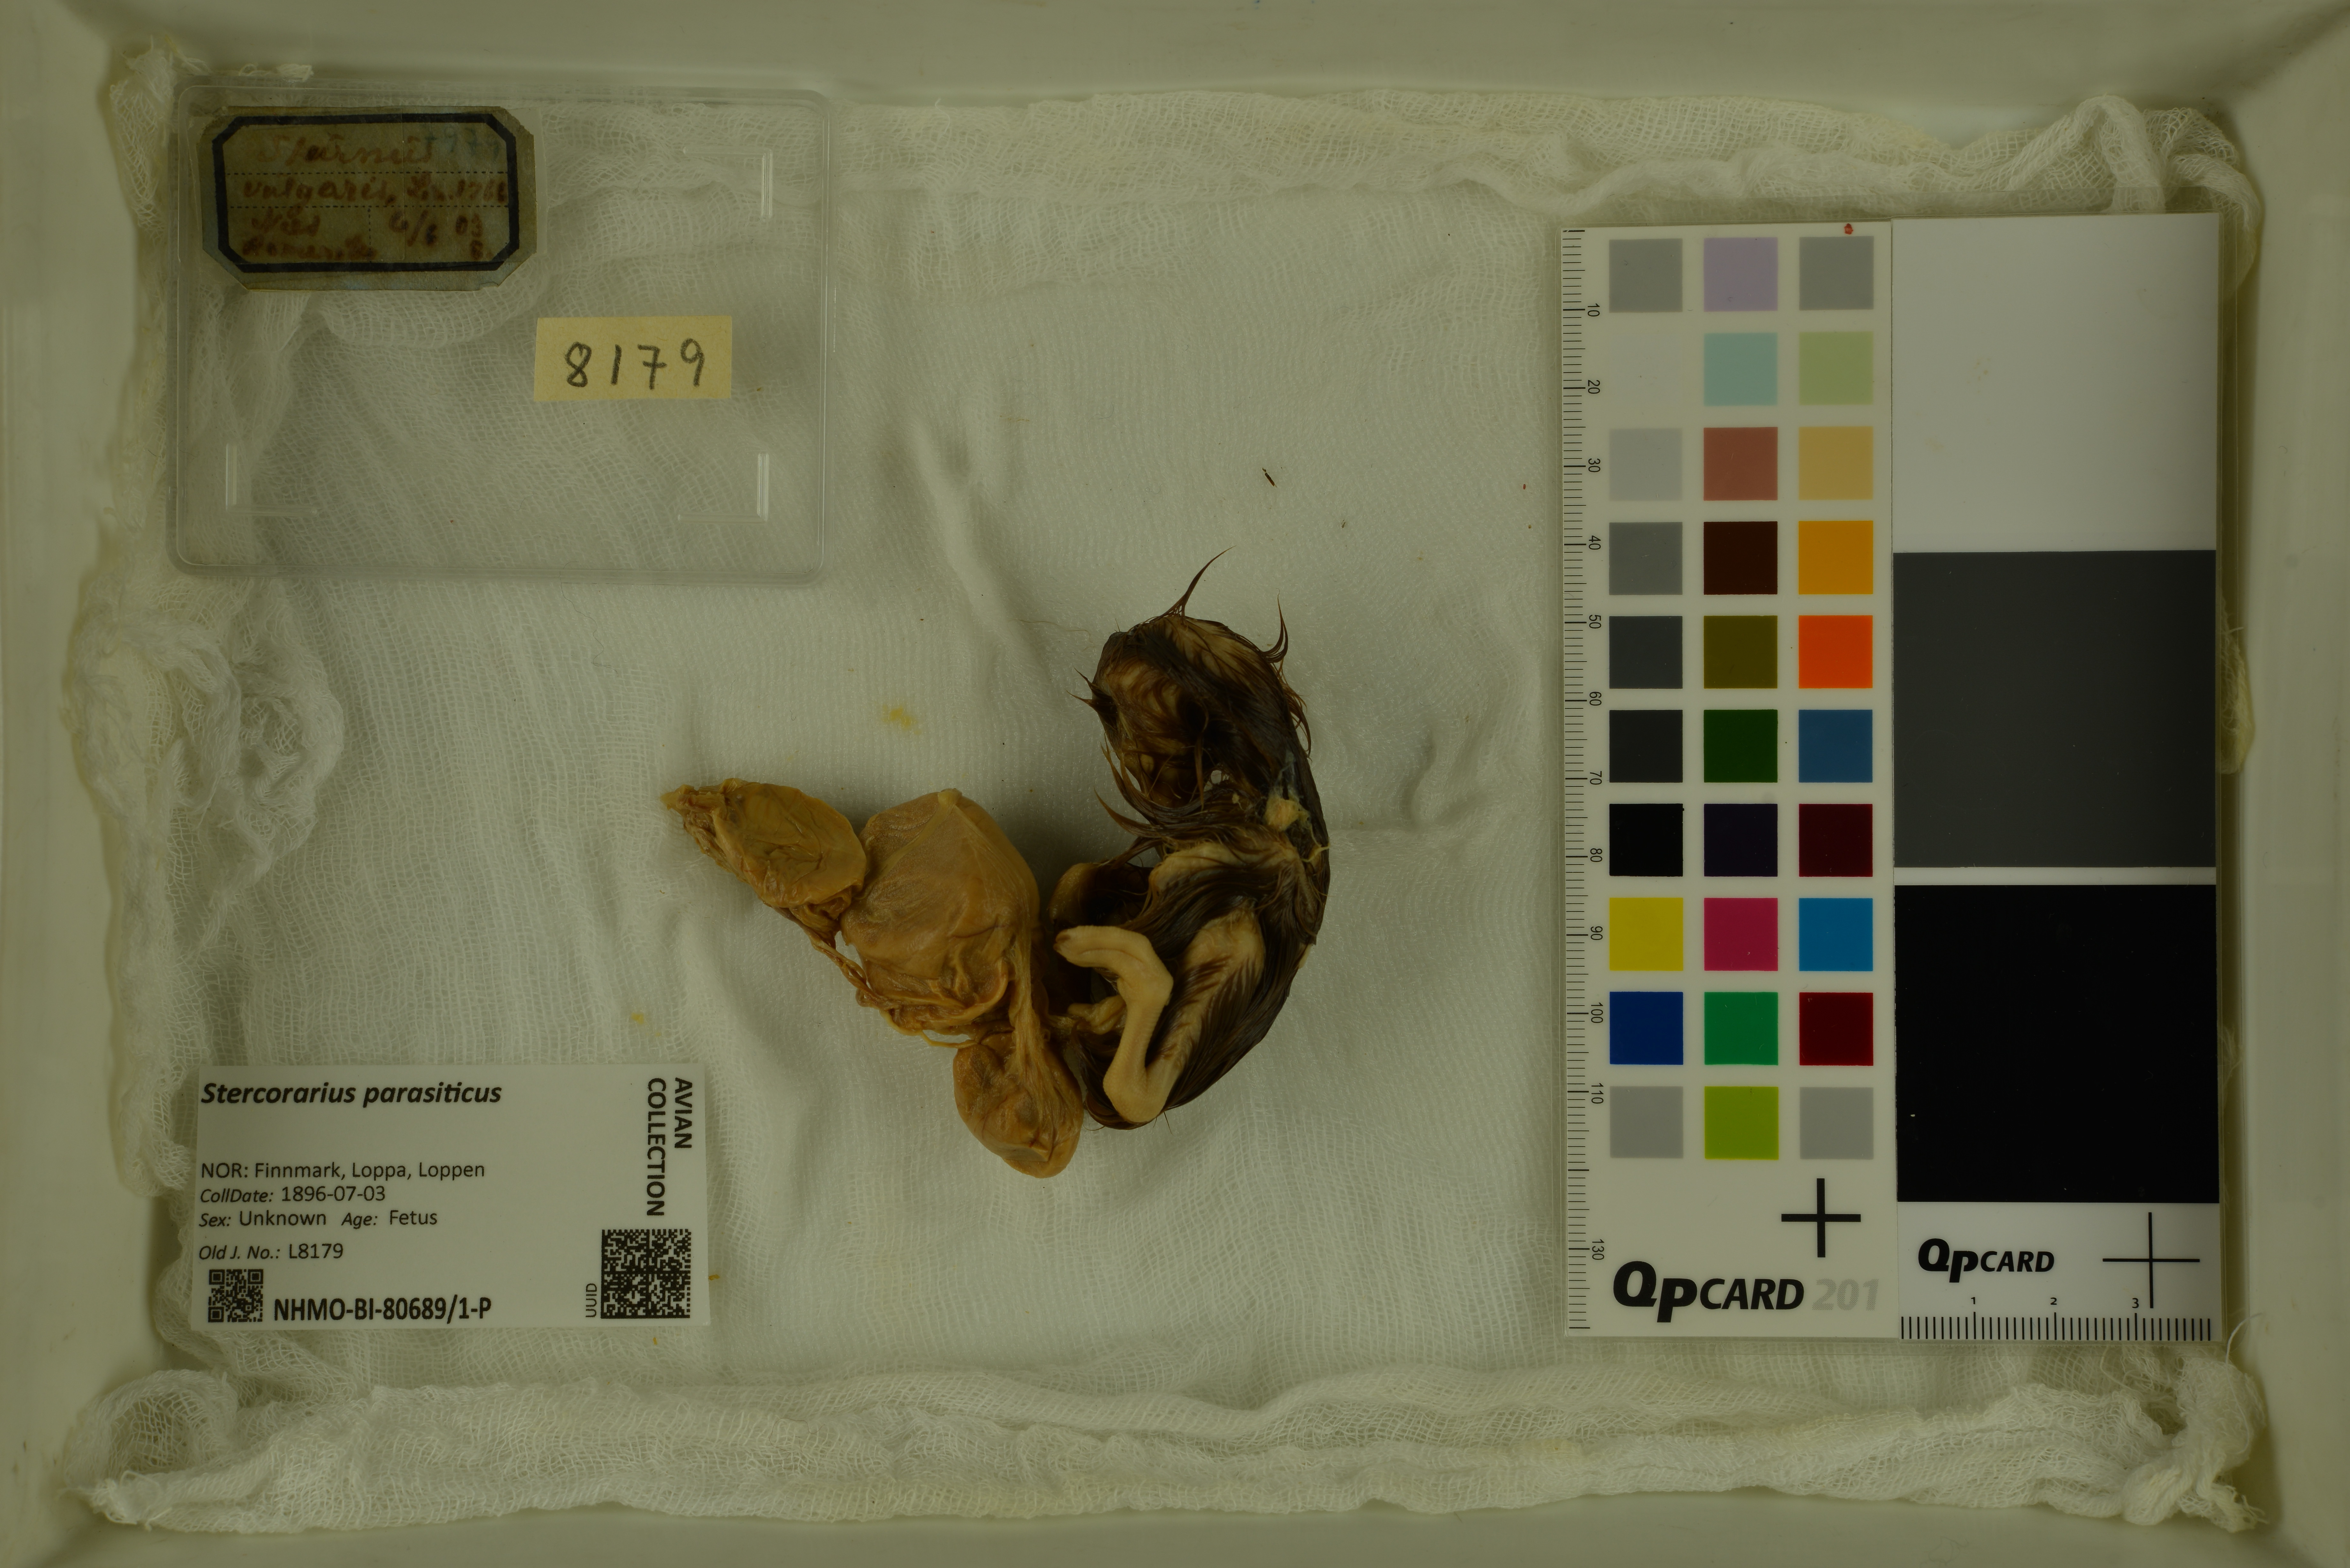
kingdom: Animalia
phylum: Chordata
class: Aves
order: Charadriiformes
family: Stercorariidae
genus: Stercorarius
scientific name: Stercorarius parasiticus
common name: Parasitic jaeger
